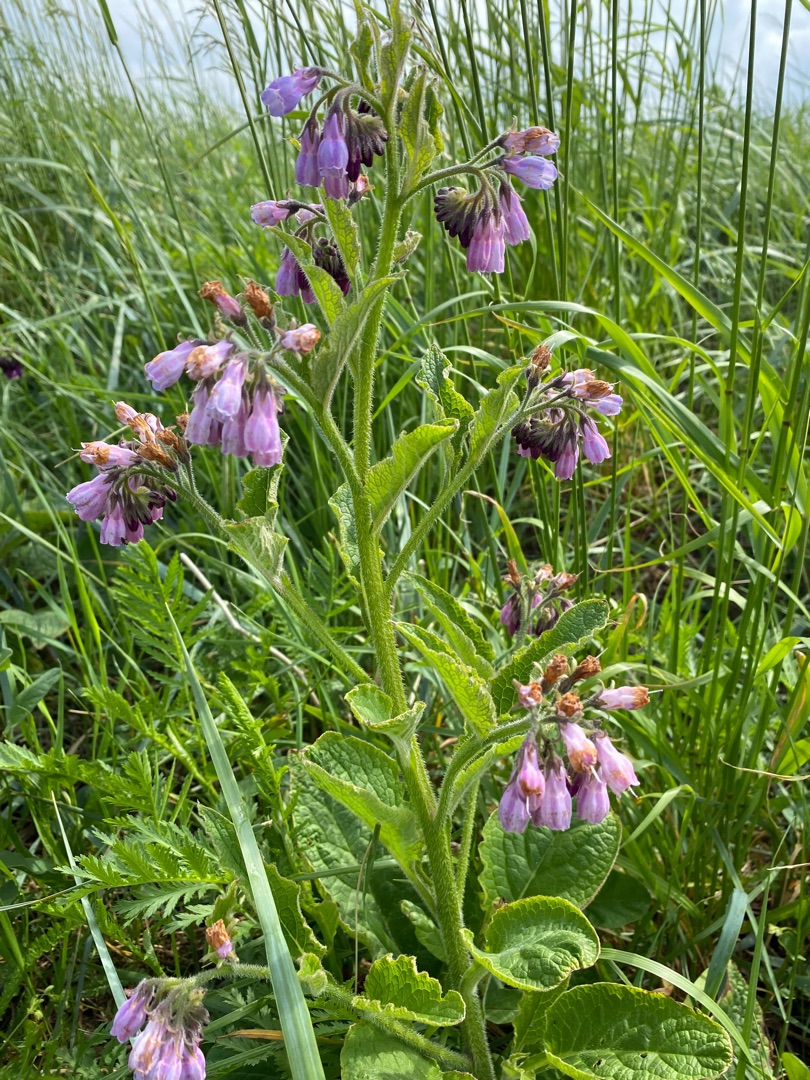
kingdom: Plantae
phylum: Tracheophyta
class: Magnoliopsida
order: Boraginales
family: Boraginaceae
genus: Symphytum
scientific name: Symphytum uplandicum
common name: Foder-kulsukker
